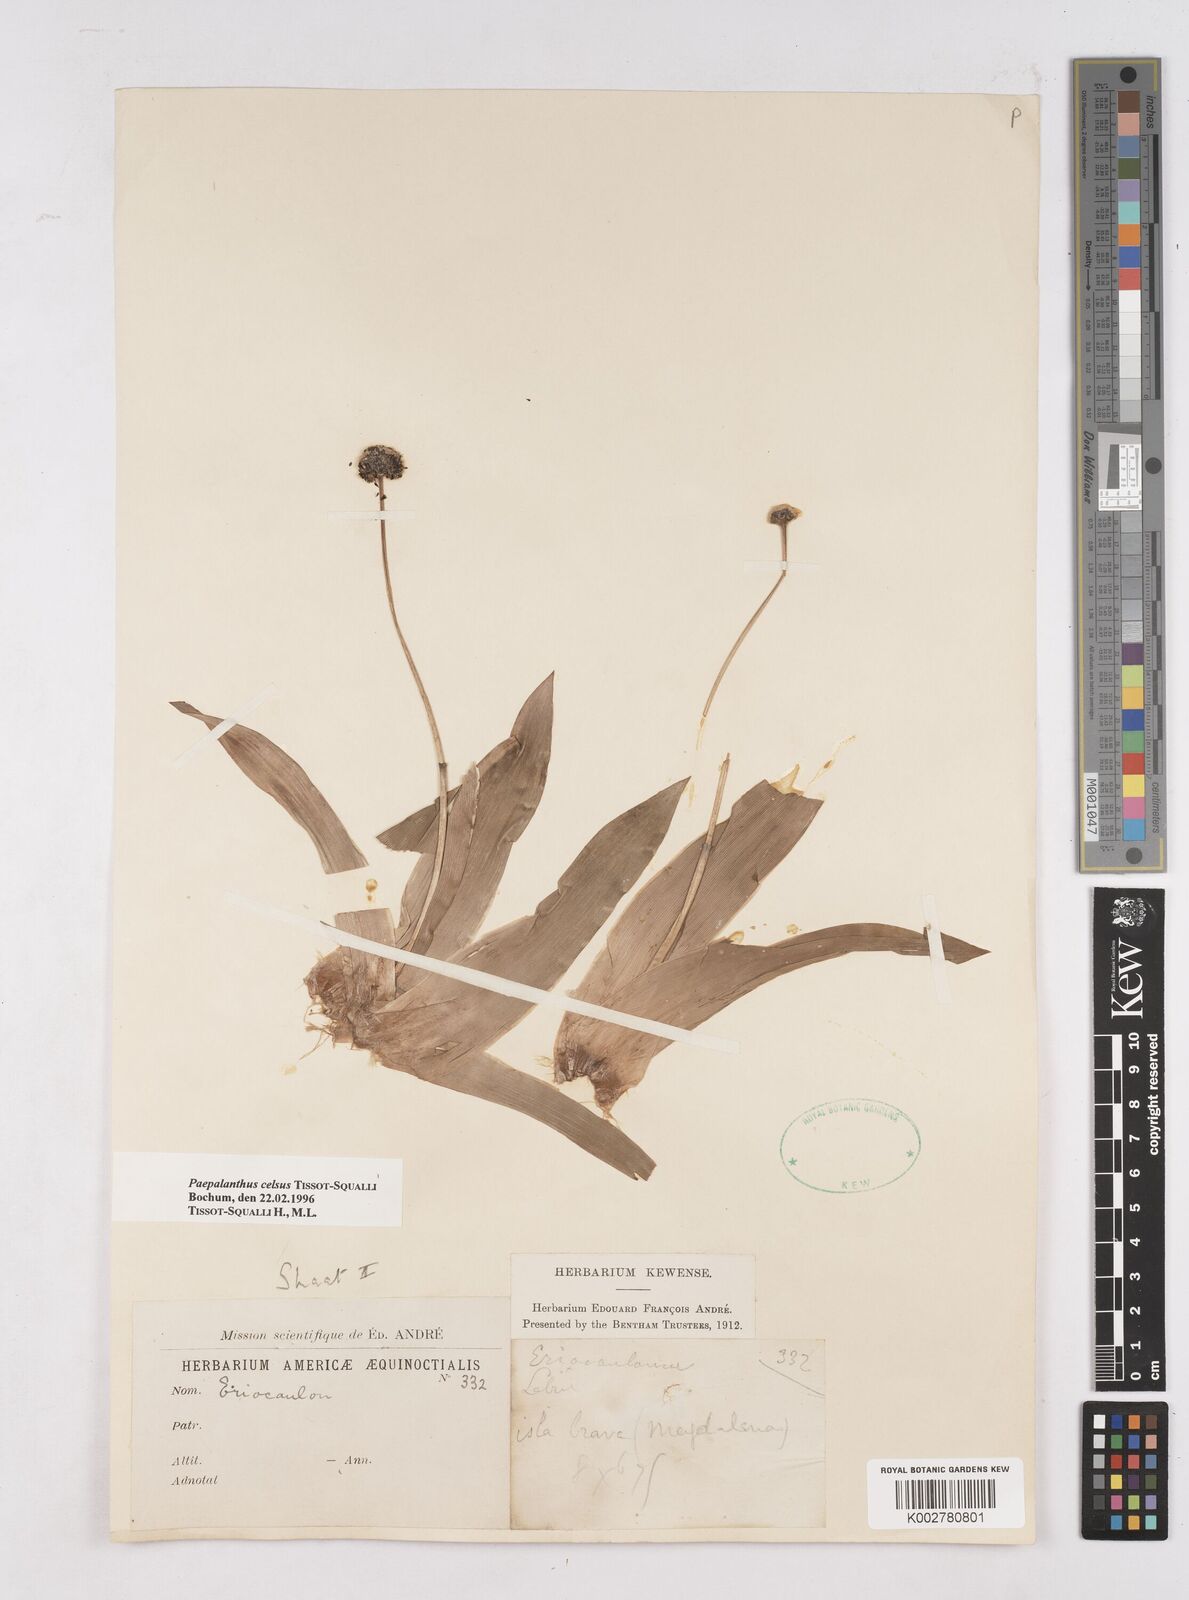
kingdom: Plantae
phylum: Tracheophyta
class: Liliopsida
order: Poales
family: Eriocaulaceae
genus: Paepalanthus
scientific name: Paepalanthus celsus
